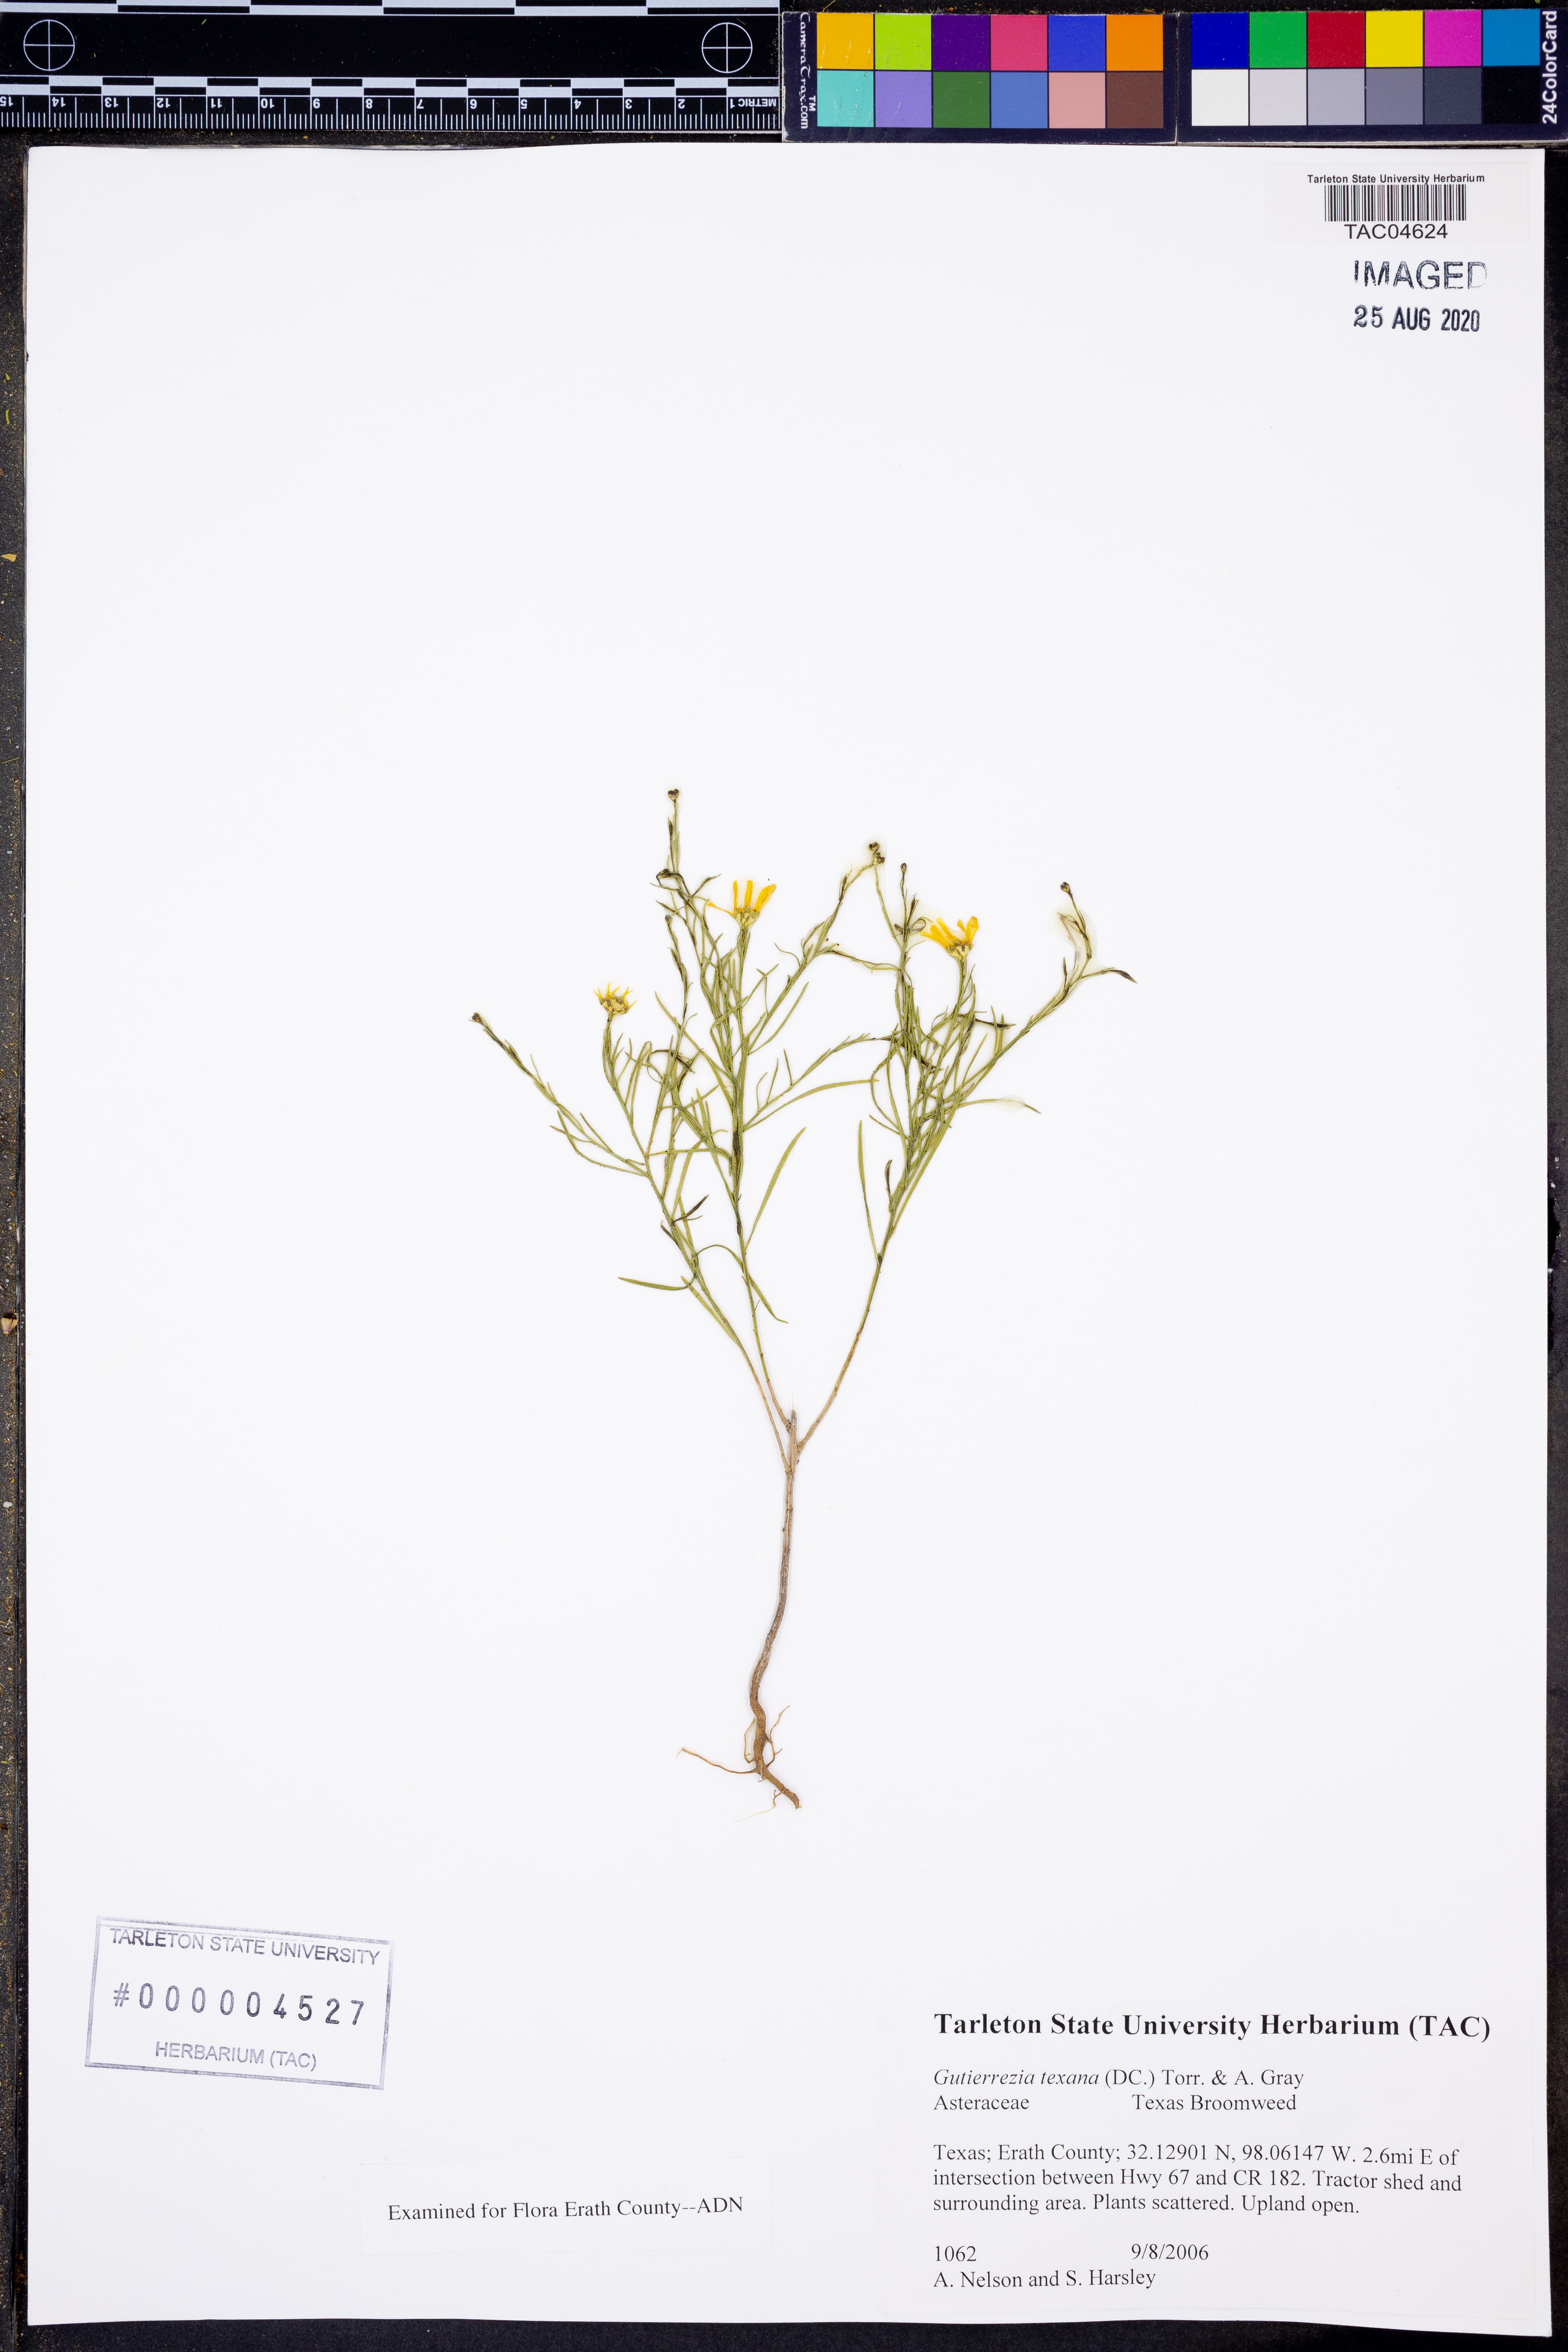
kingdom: Plantae
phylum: Tracheophyta
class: Magnoliopsida
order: Asterales
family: Asteraceae
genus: Gutierrezia
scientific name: Gutierrezia texana
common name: Texas snakeweed
